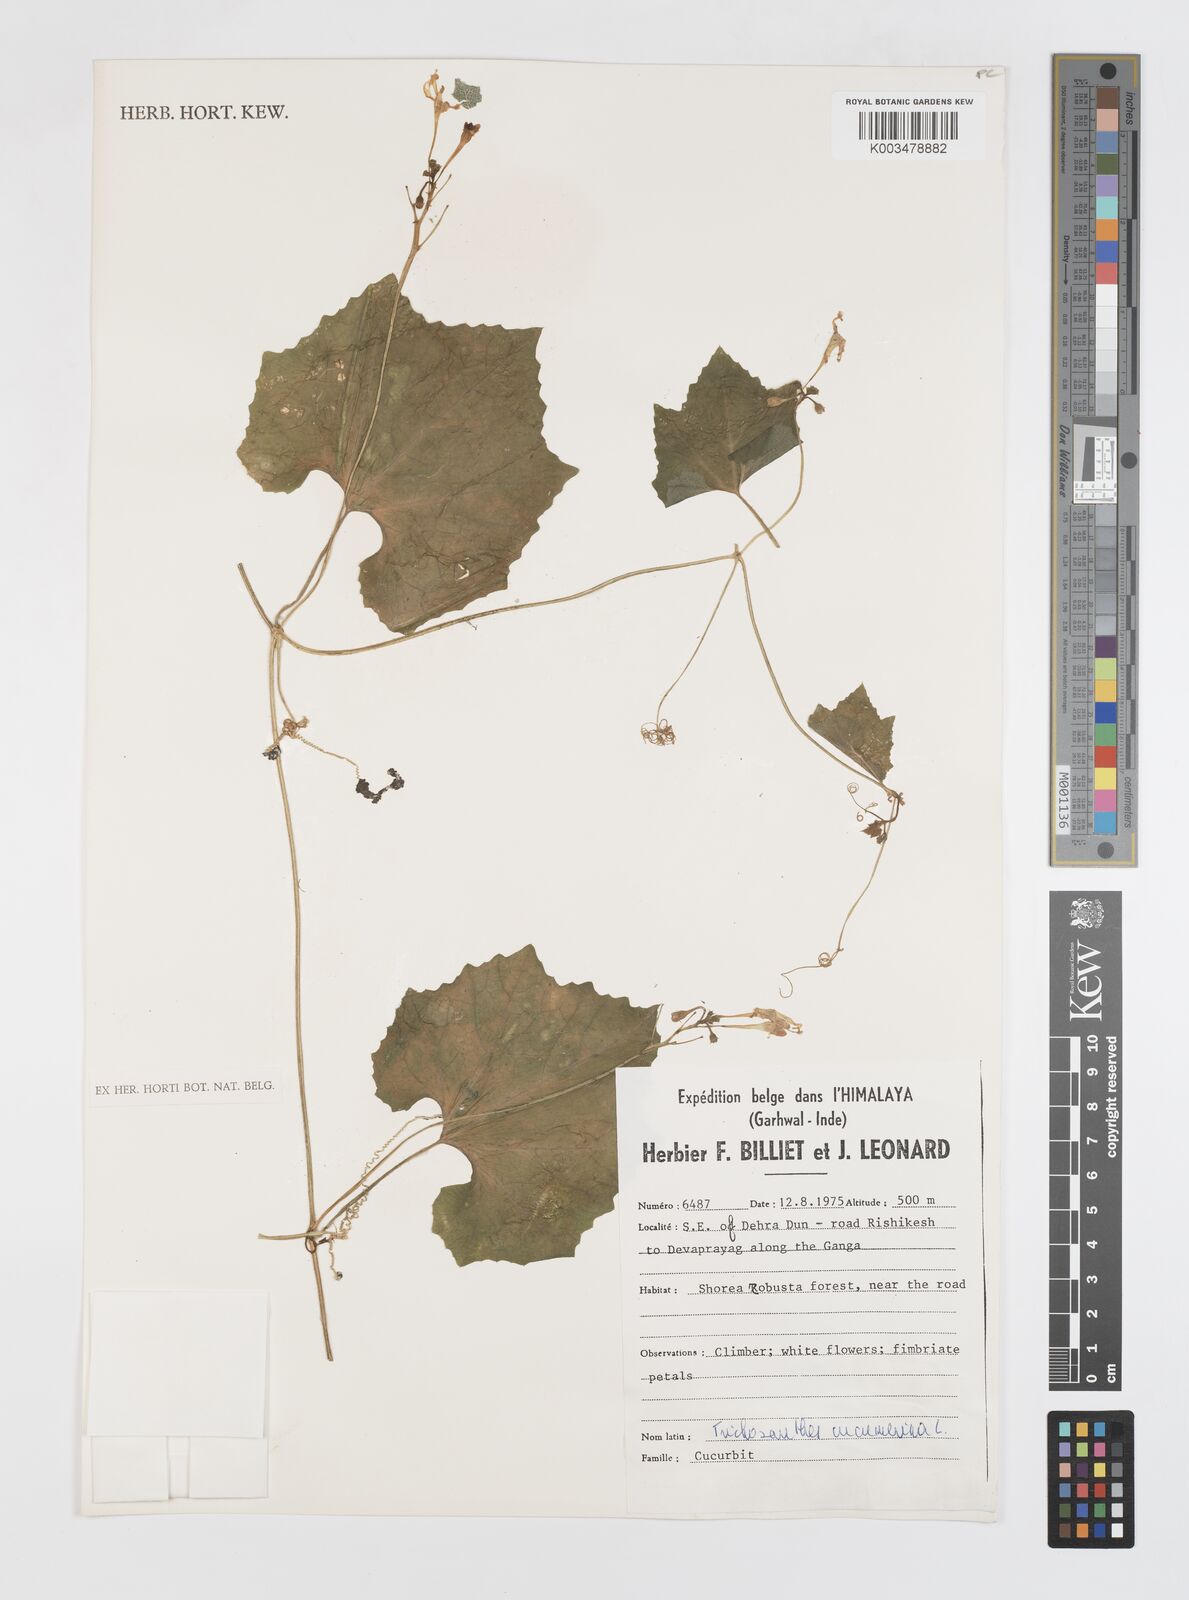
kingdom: Plantae
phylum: Tracheophyta
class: Magnoliopsida
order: Cucurbitales
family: Cucurbitaceae
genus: Trichosanthes
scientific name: Trichosanthes cucumerina
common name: Snakegourd
